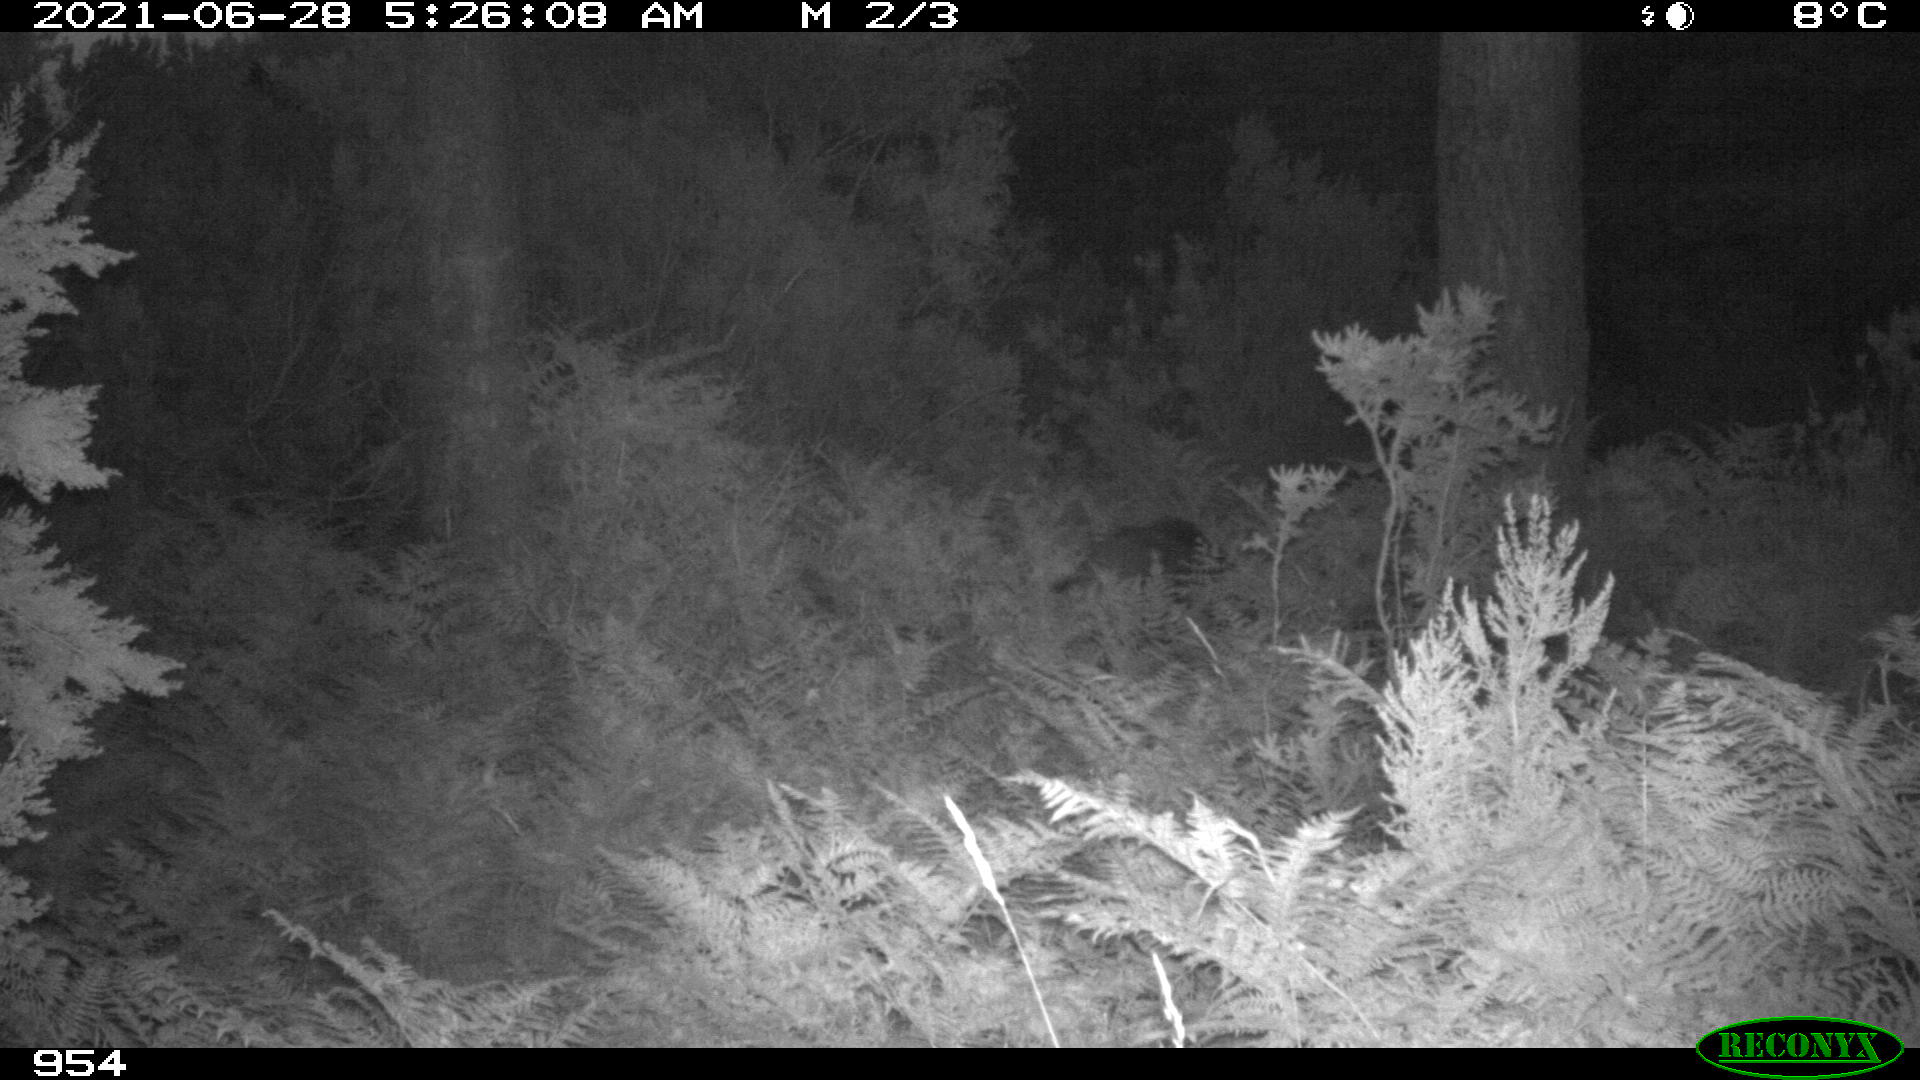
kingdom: Animalia
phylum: Chordata
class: Mammalia
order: Artiodactyla
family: Suidae
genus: Sus
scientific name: Sus scrofa
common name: Wild boar
